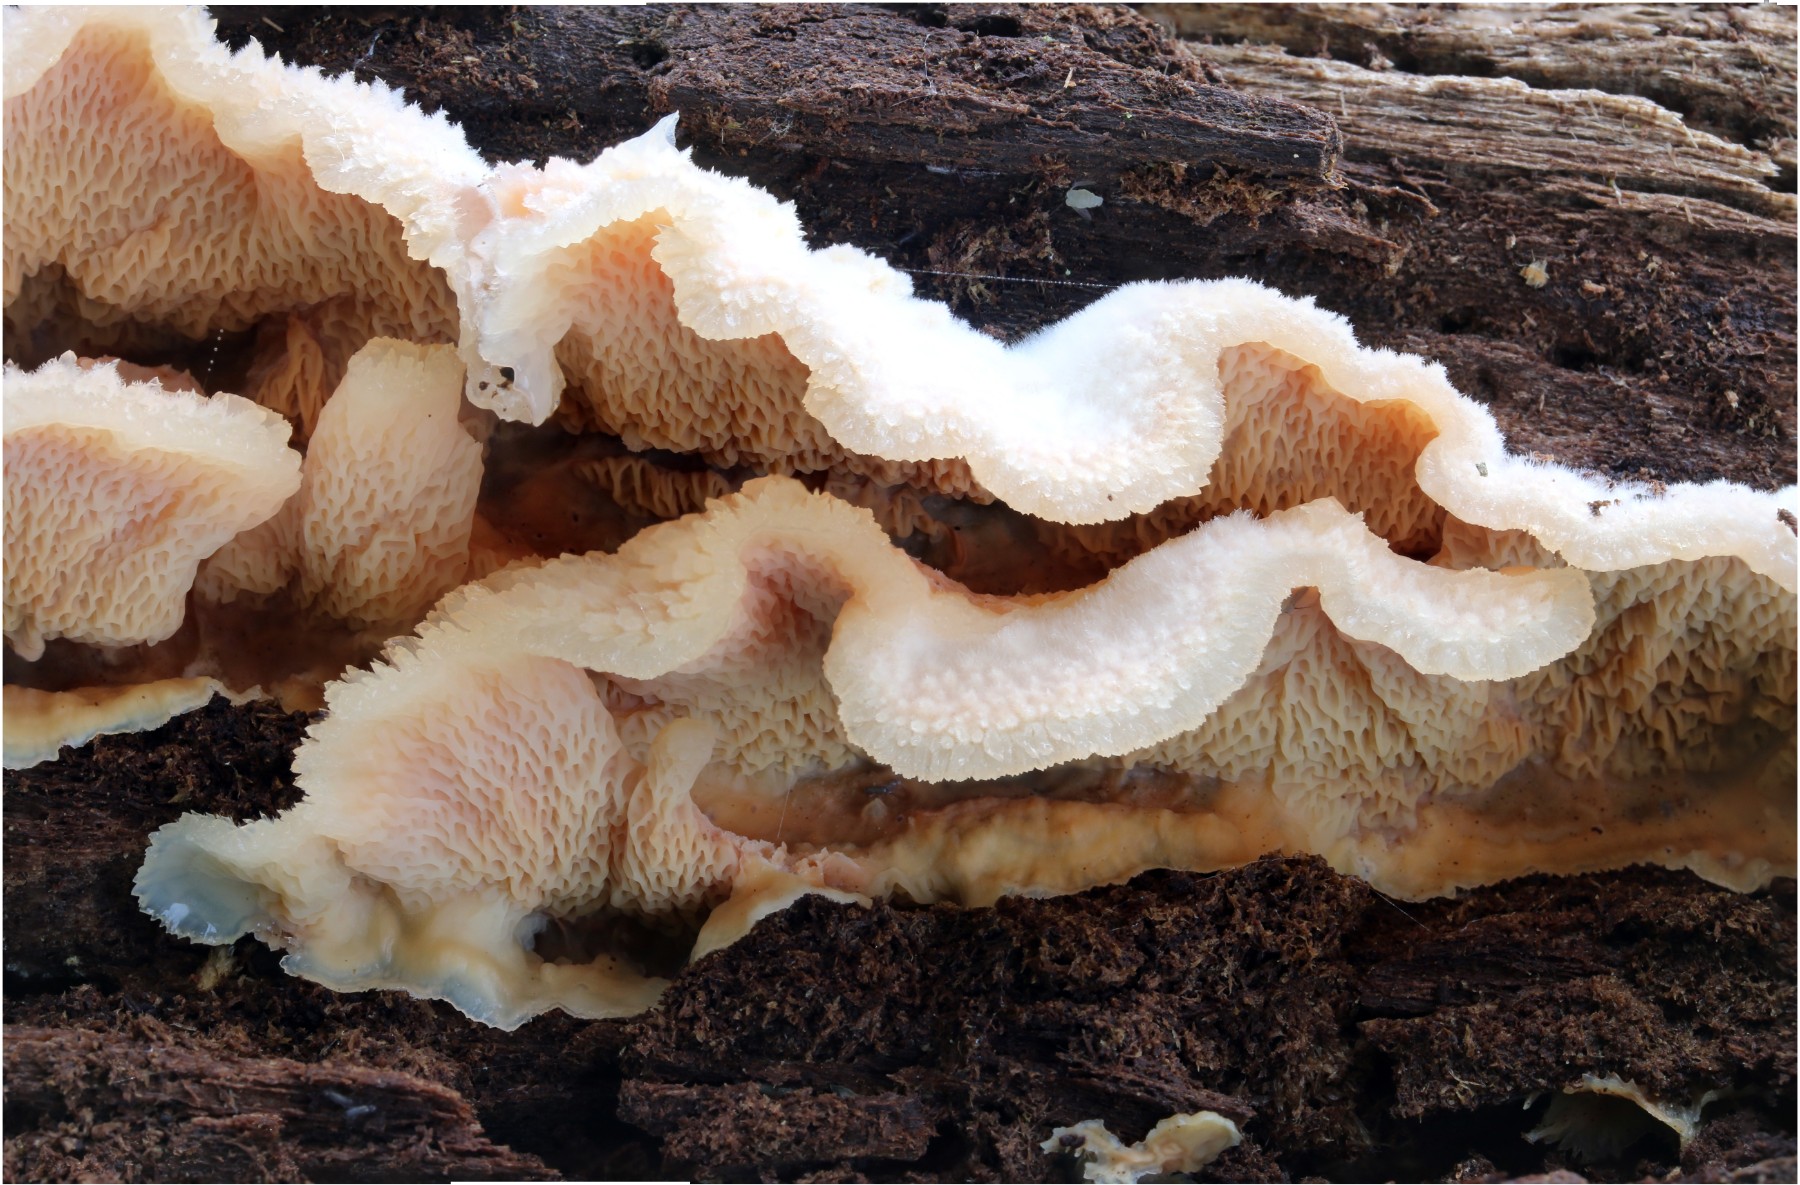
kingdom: Fungi
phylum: Basidiomycota
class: Agaricomycetes
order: Polyporales
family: Meruliaceae
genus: Phlebia
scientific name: Phlebia tremellosa
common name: bævrende åresvamp
